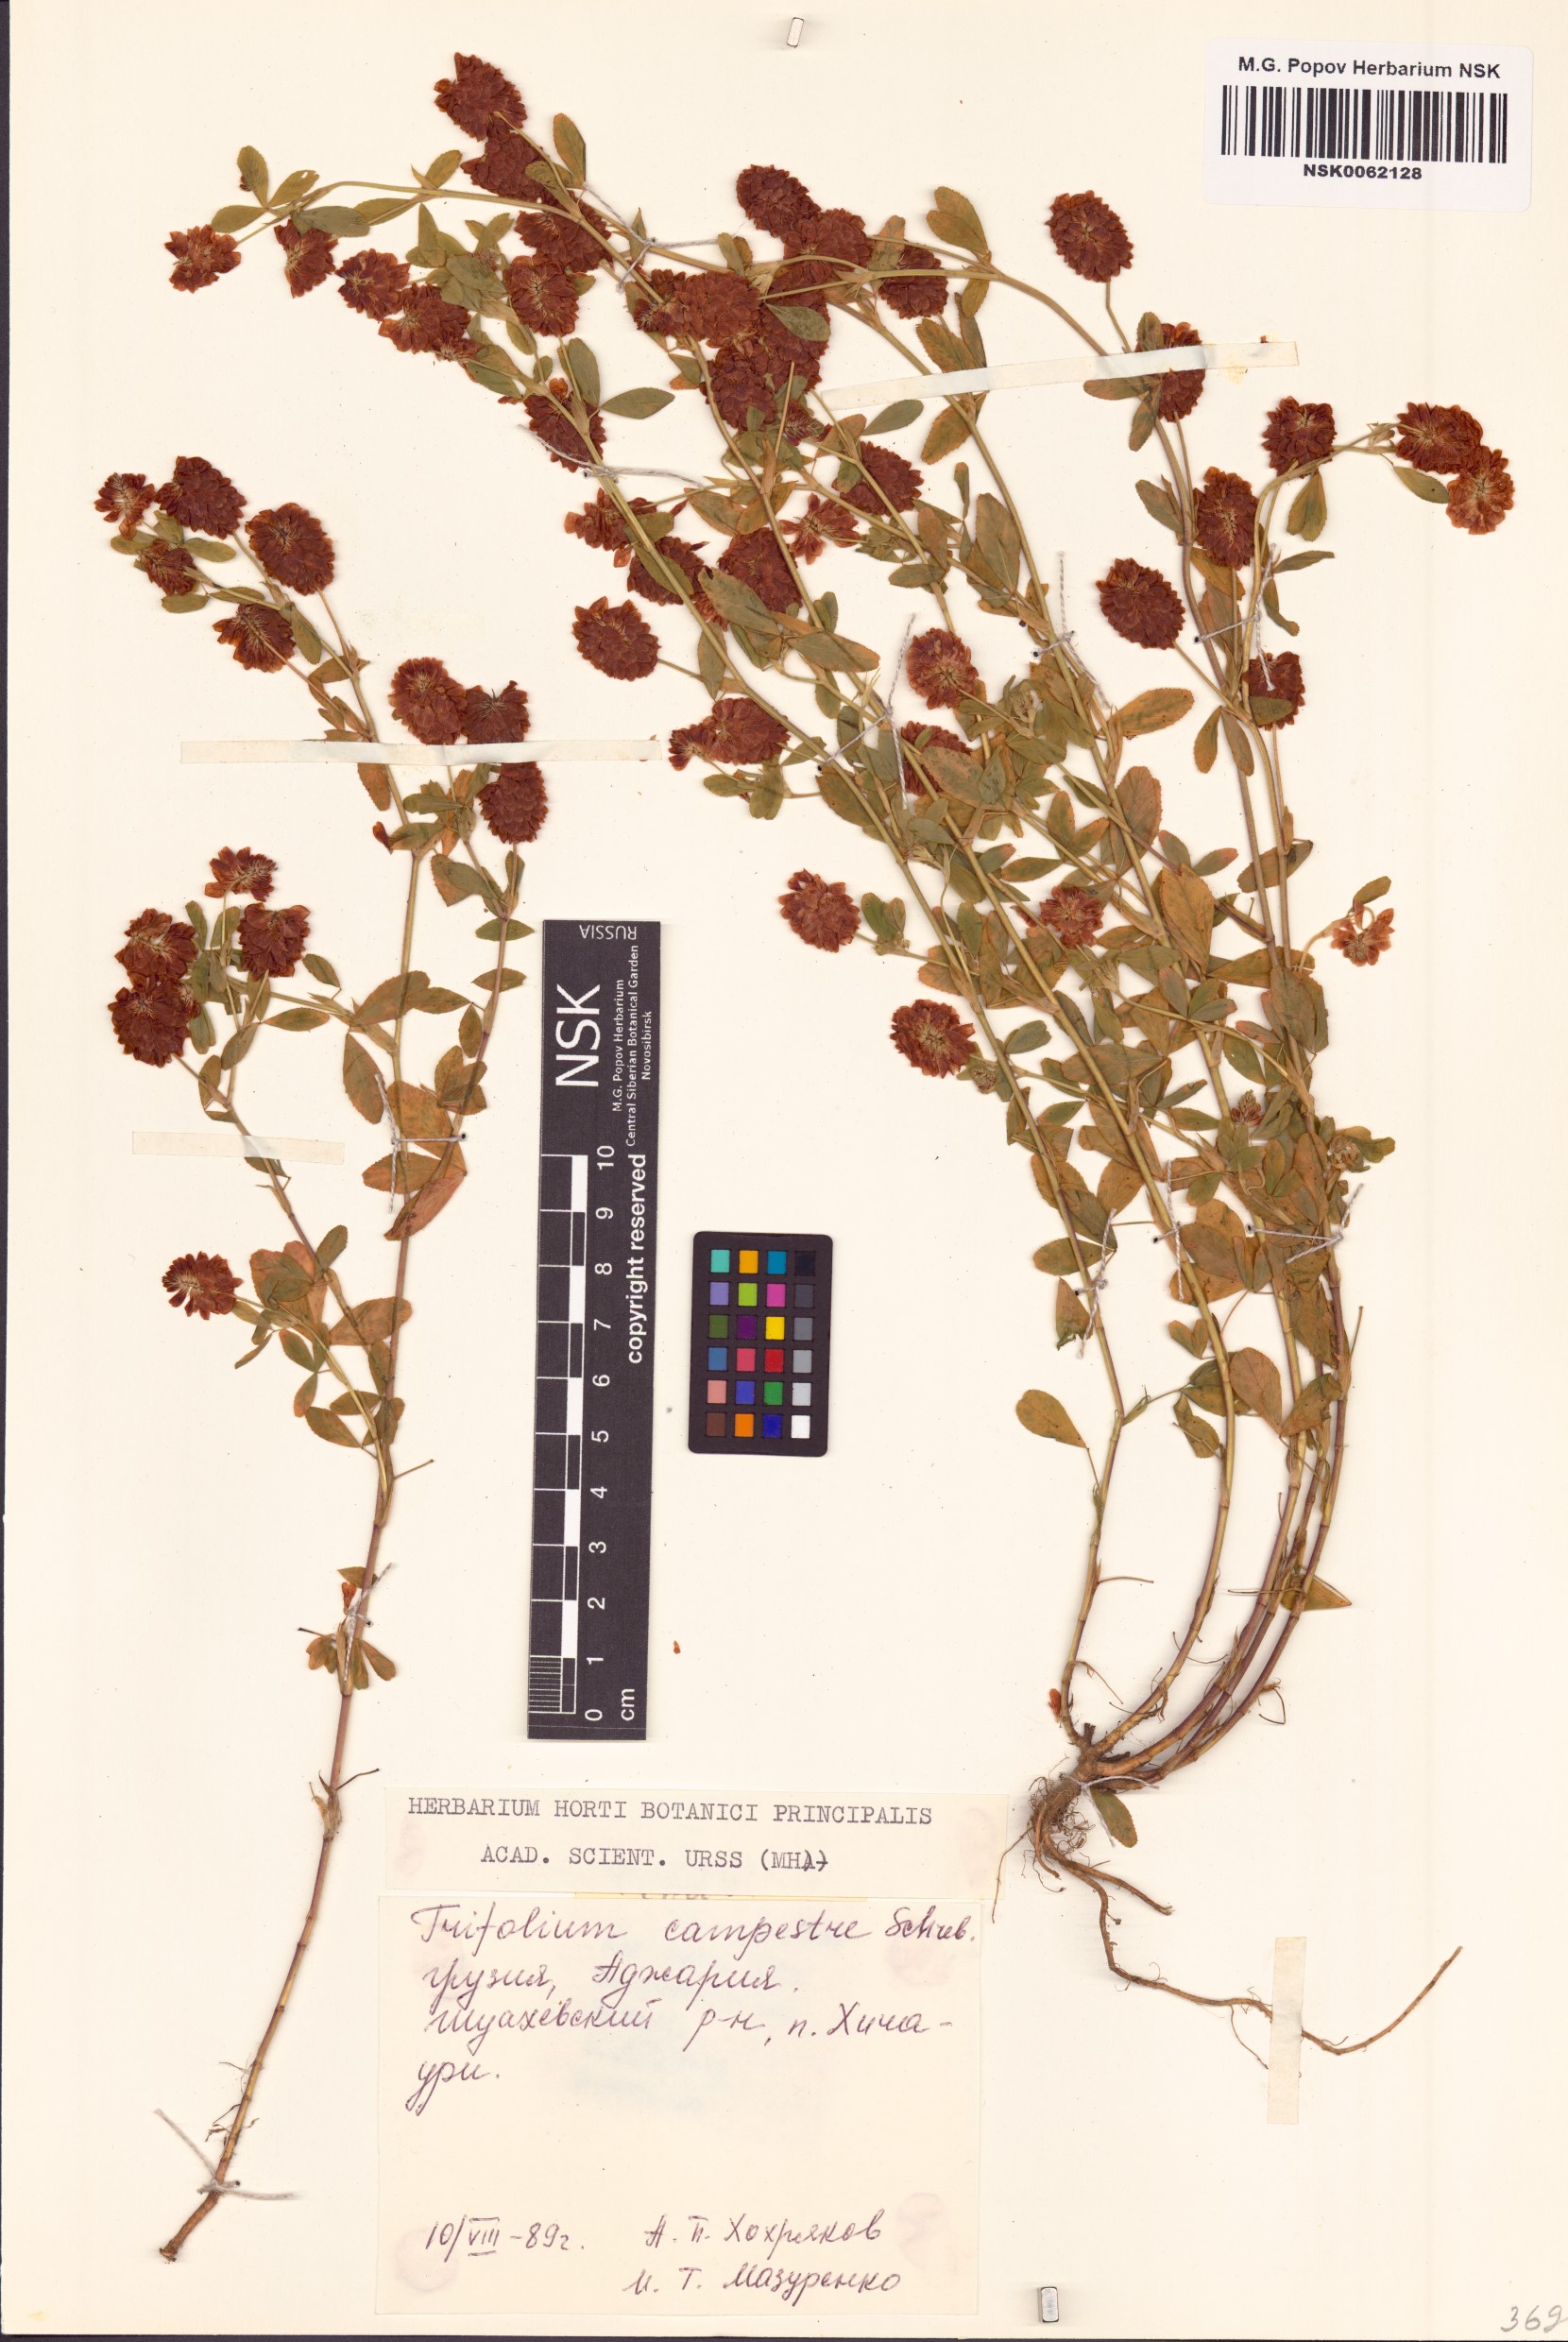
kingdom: Plantae
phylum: Tracheophyta
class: Magnoliopsida
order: Fabales
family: Fabaceae
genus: Trifolium
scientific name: Trifolium campestre
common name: Field clover
